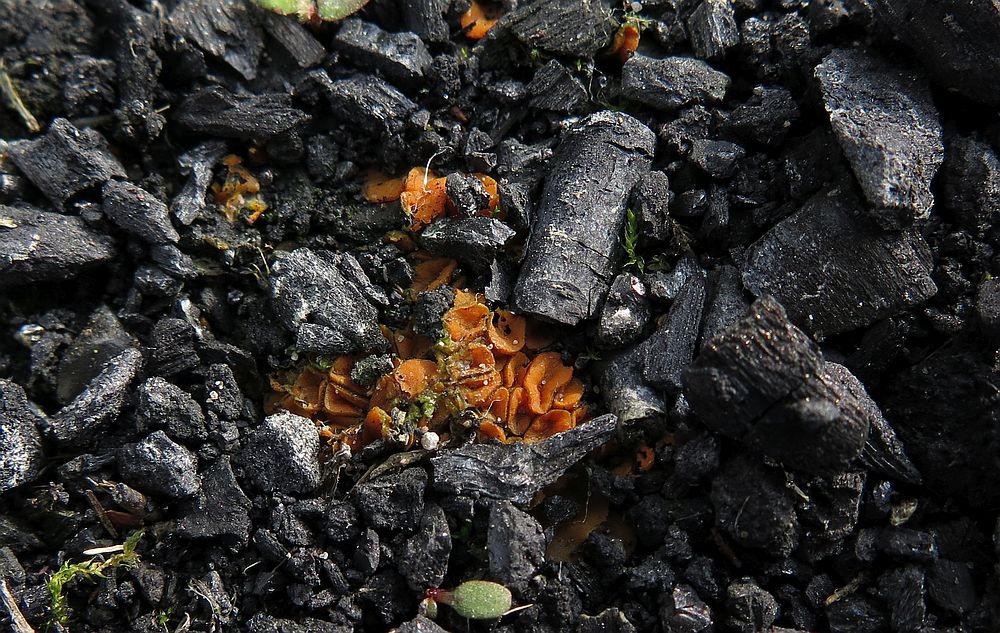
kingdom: Fungi
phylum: Ascomycota
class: Pezizomycetes
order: Pezizales
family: Pyronemataceae
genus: Anthracobia
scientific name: Anthracobia macrocystis
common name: orange ildbæger
